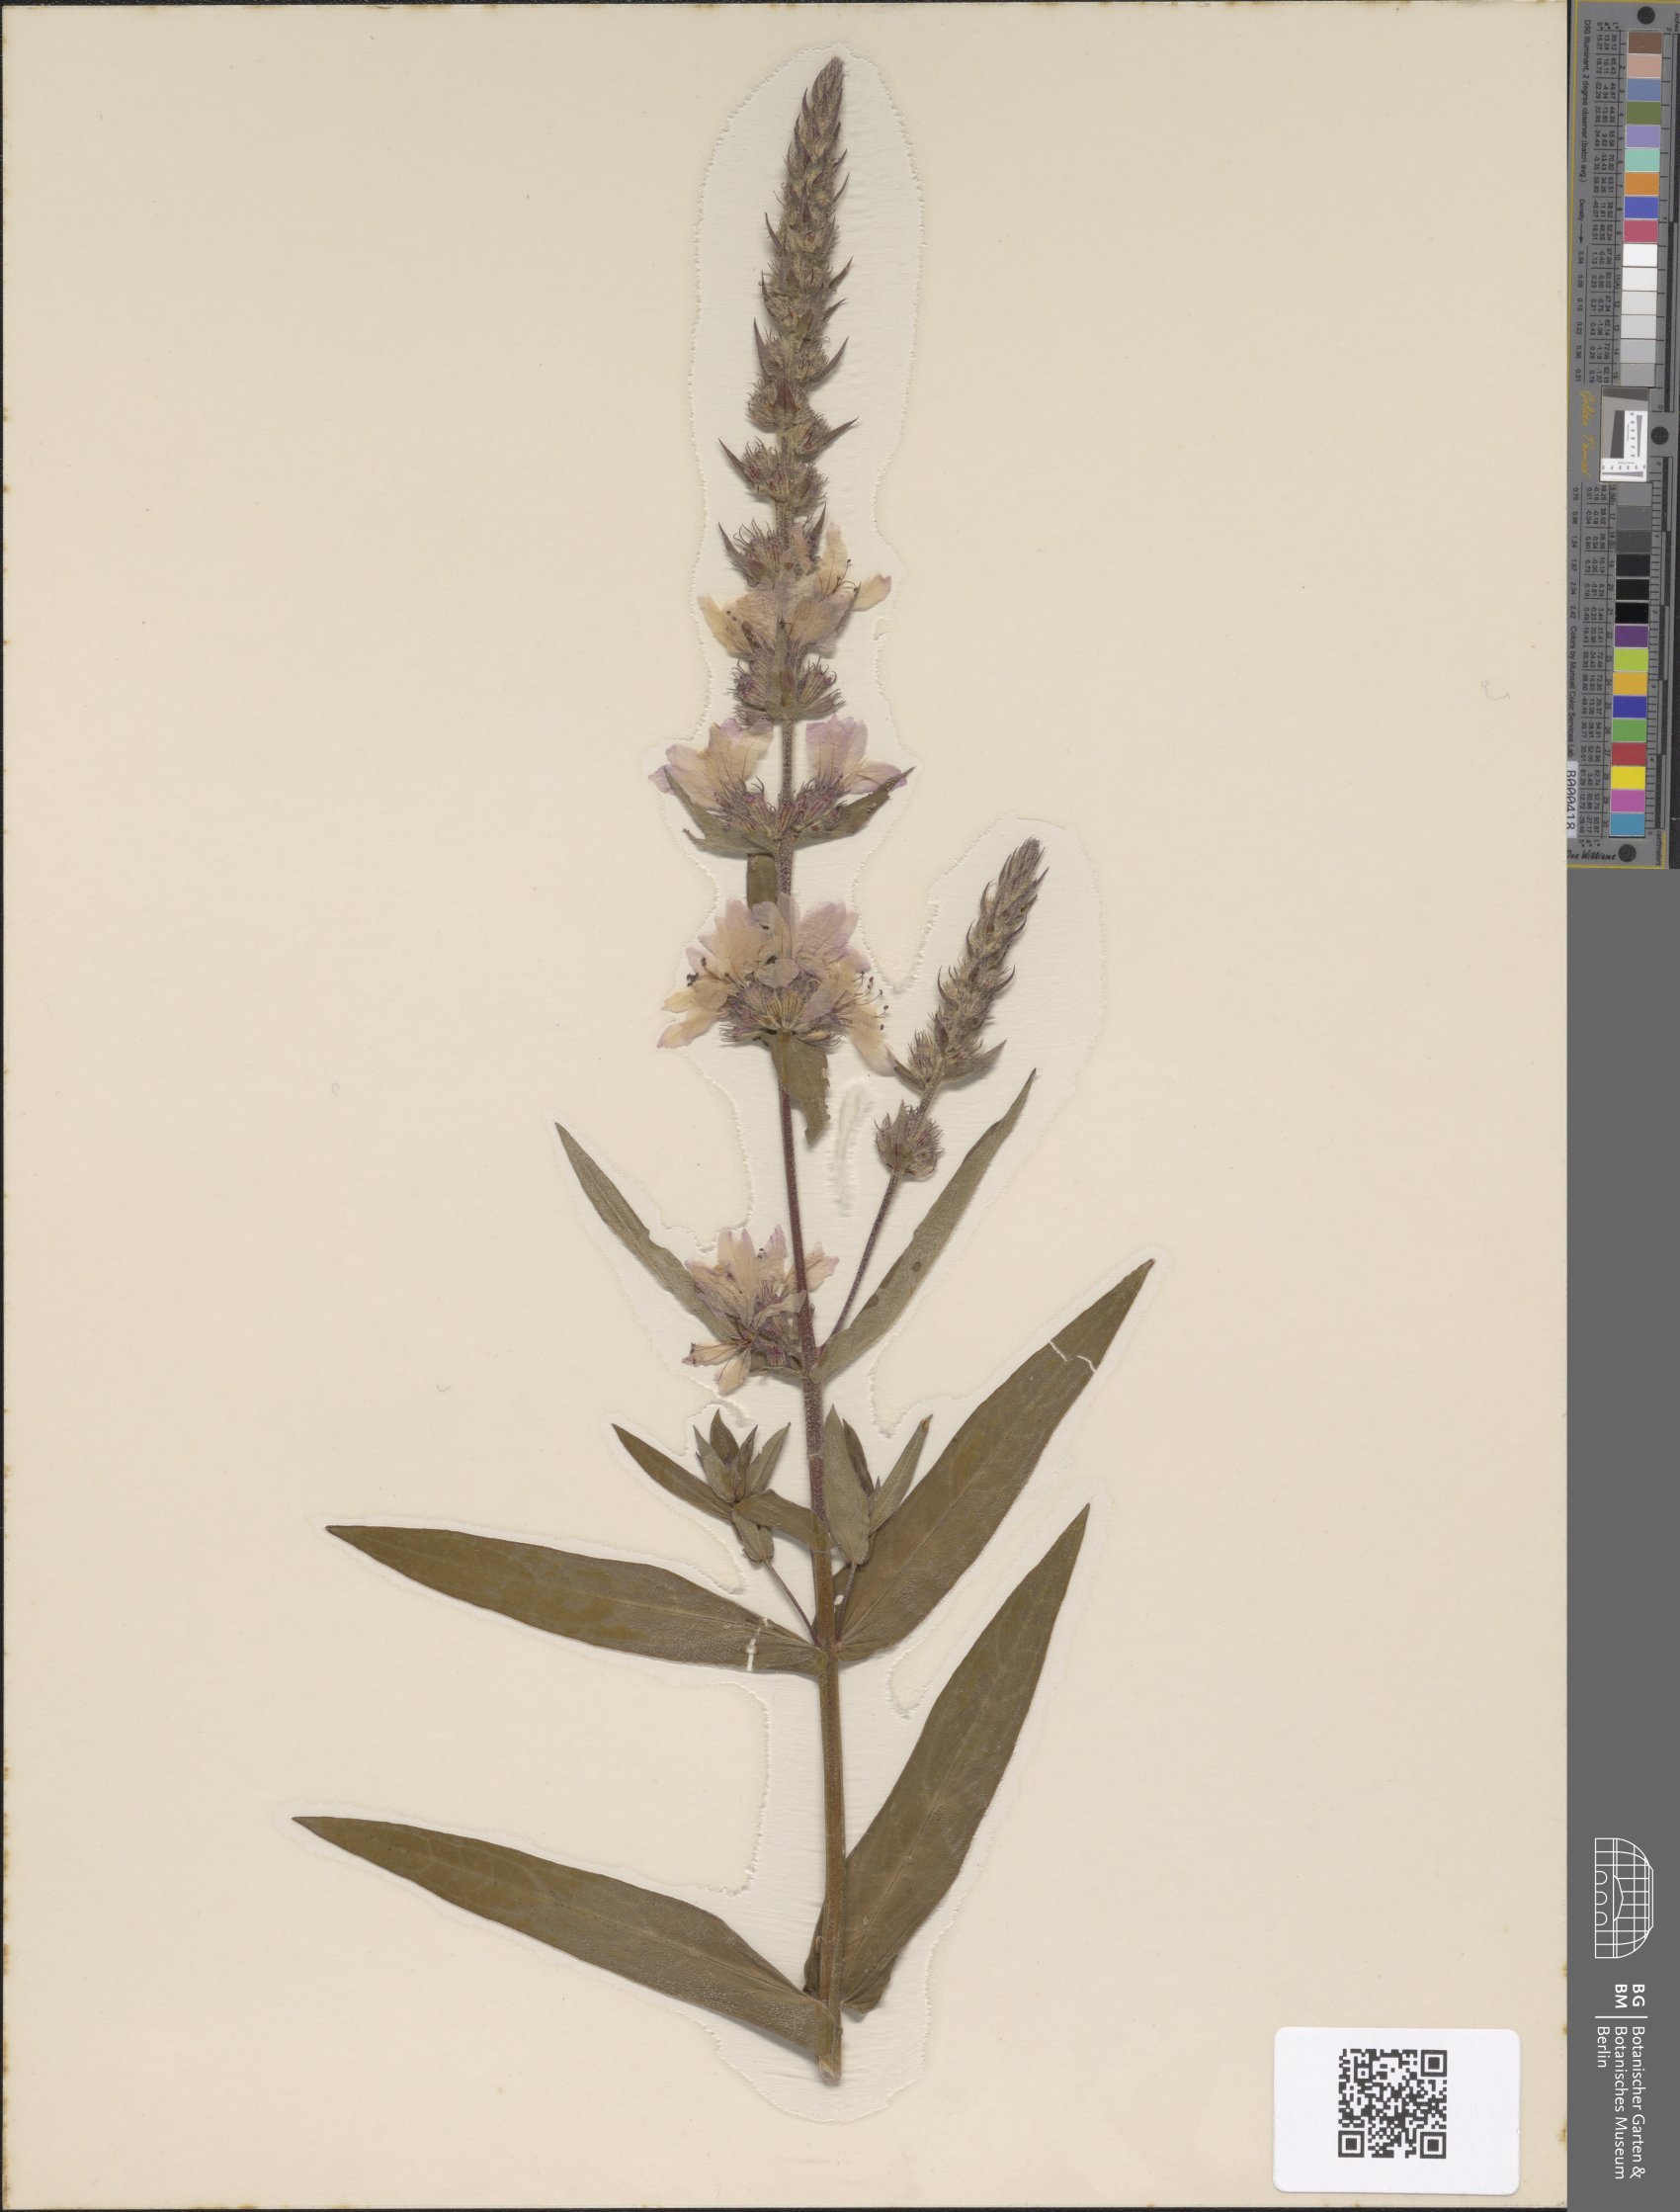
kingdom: Plantae
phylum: Tracheophyta
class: Magnoliopsida
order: Myrtales
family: Lythraceae
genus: Lythrum
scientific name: Lythrum salicaria
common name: Purple loosestrife
